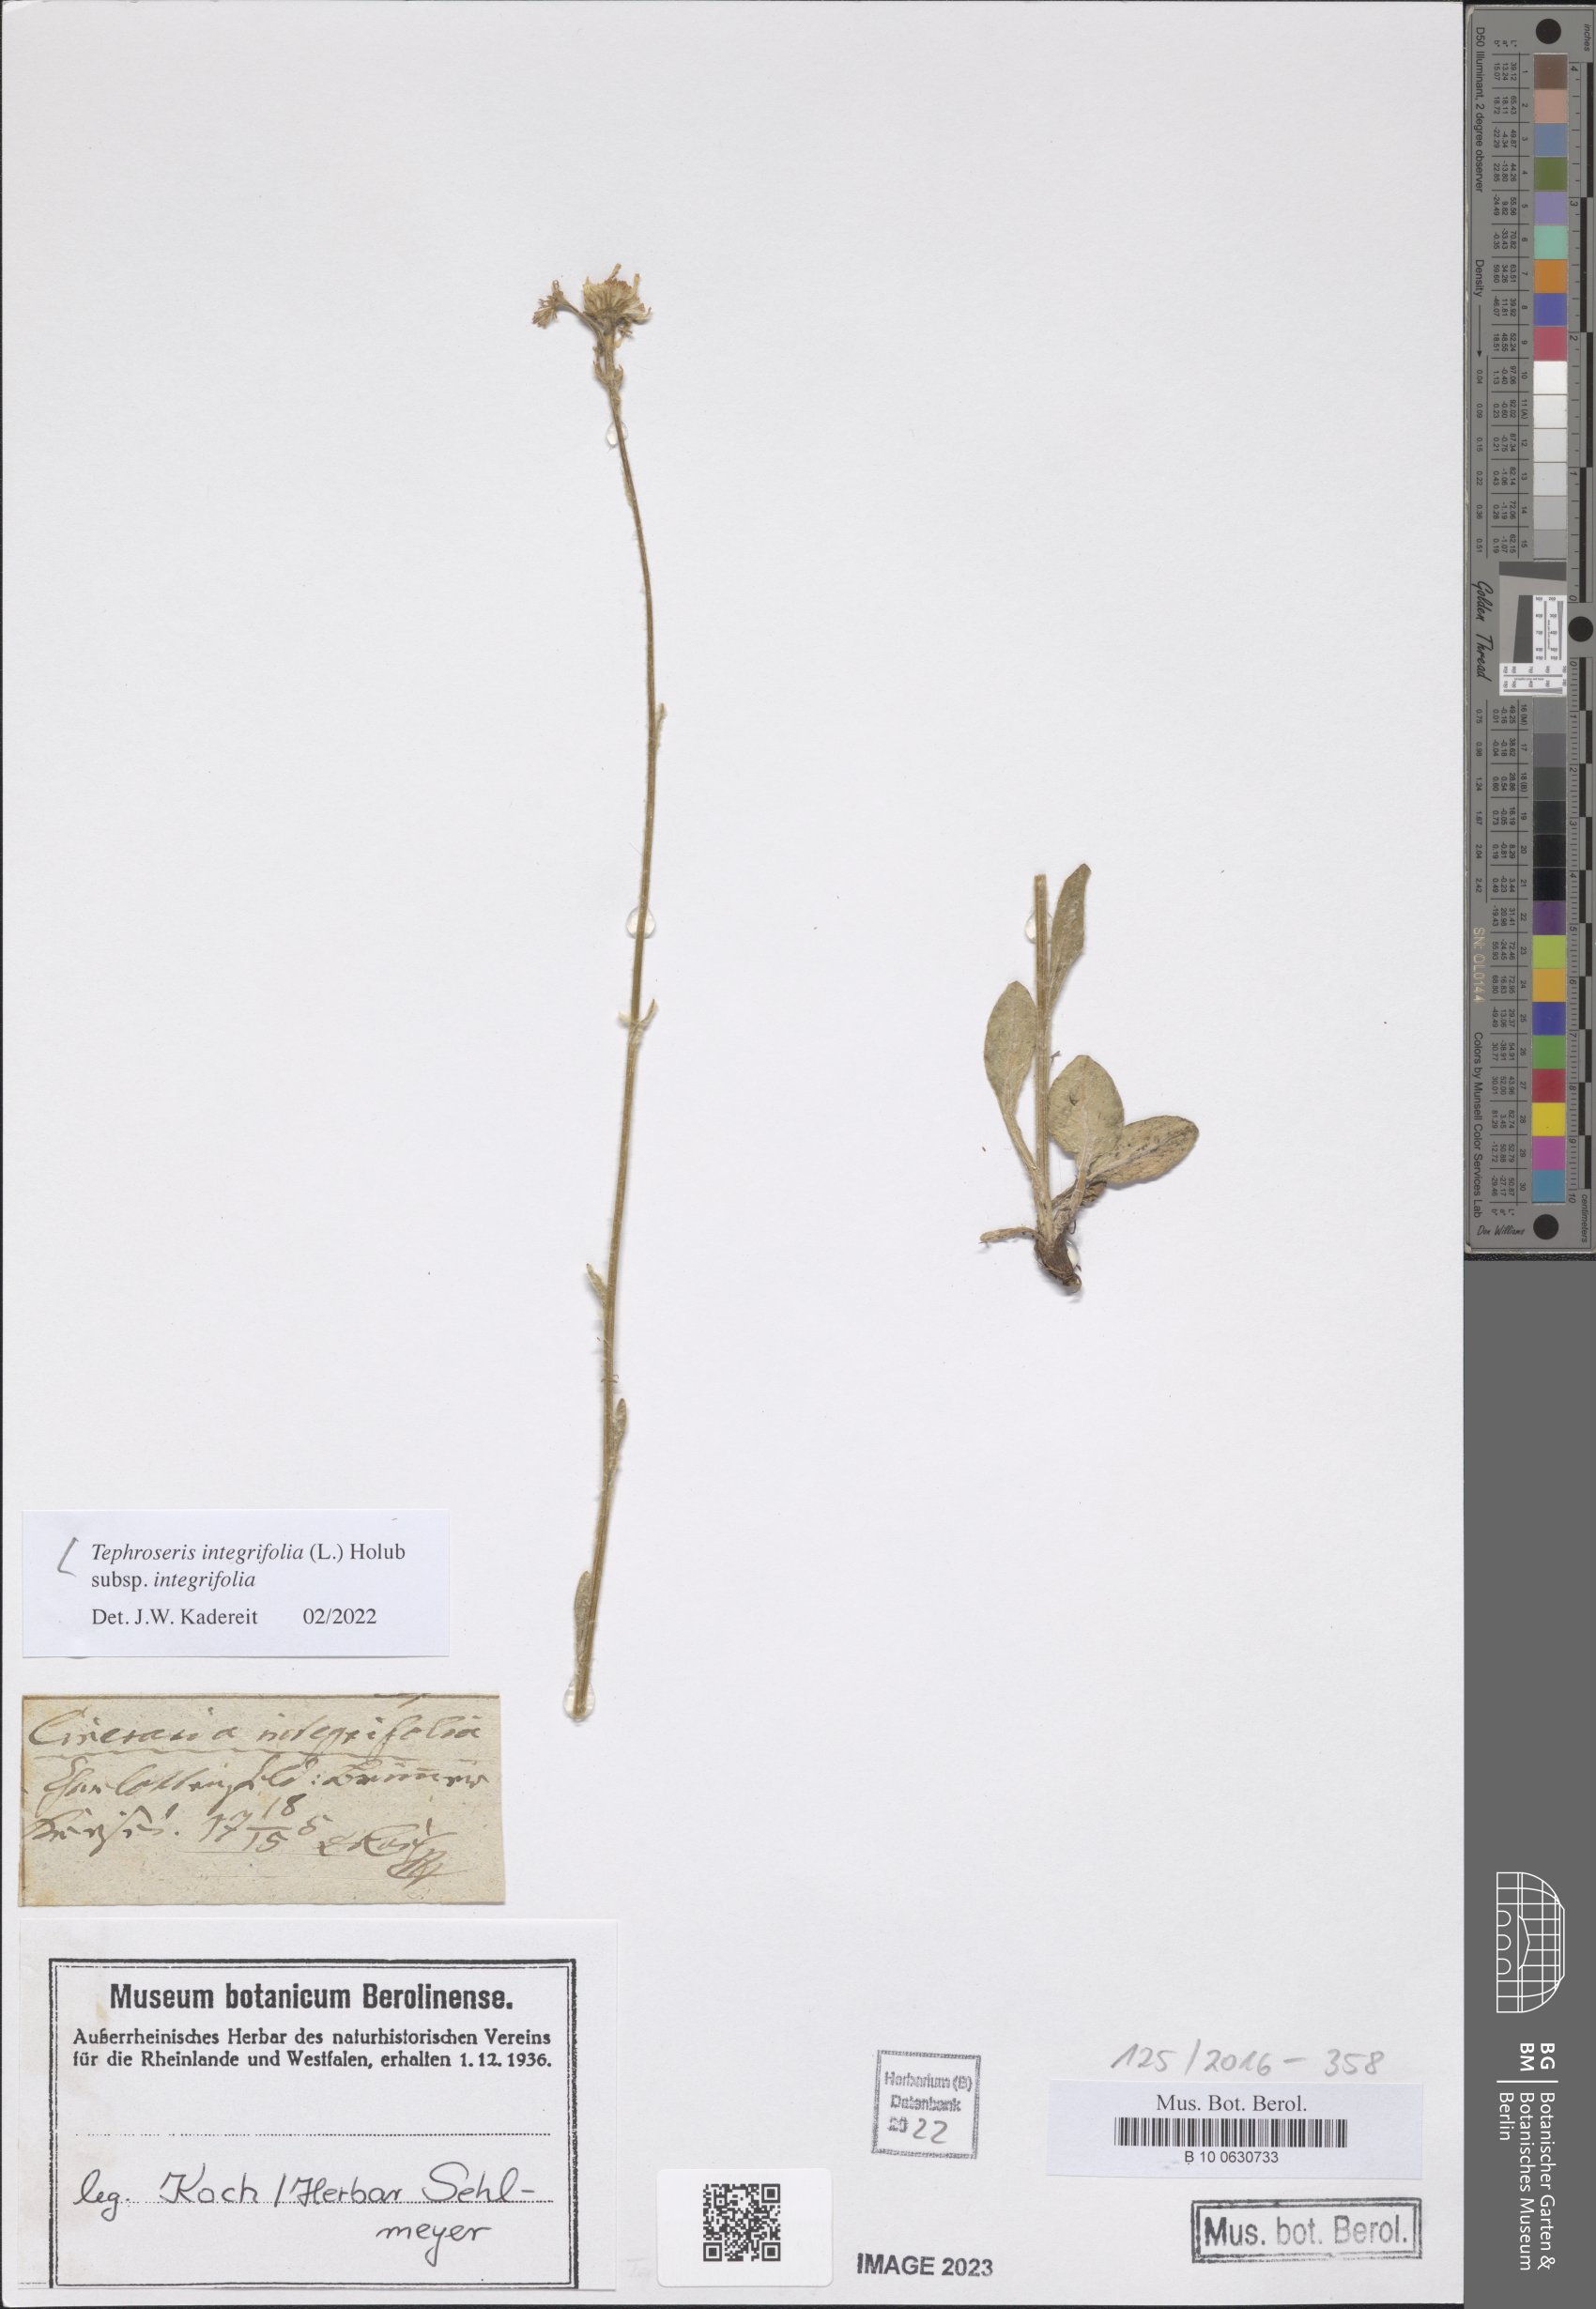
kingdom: Plantae
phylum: Tracheophyta
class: Magnoliopsida
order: Asterales
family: Asteraceae
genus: Tephroseris
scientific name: Tephroseris integrifolia
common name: Field fleawort
